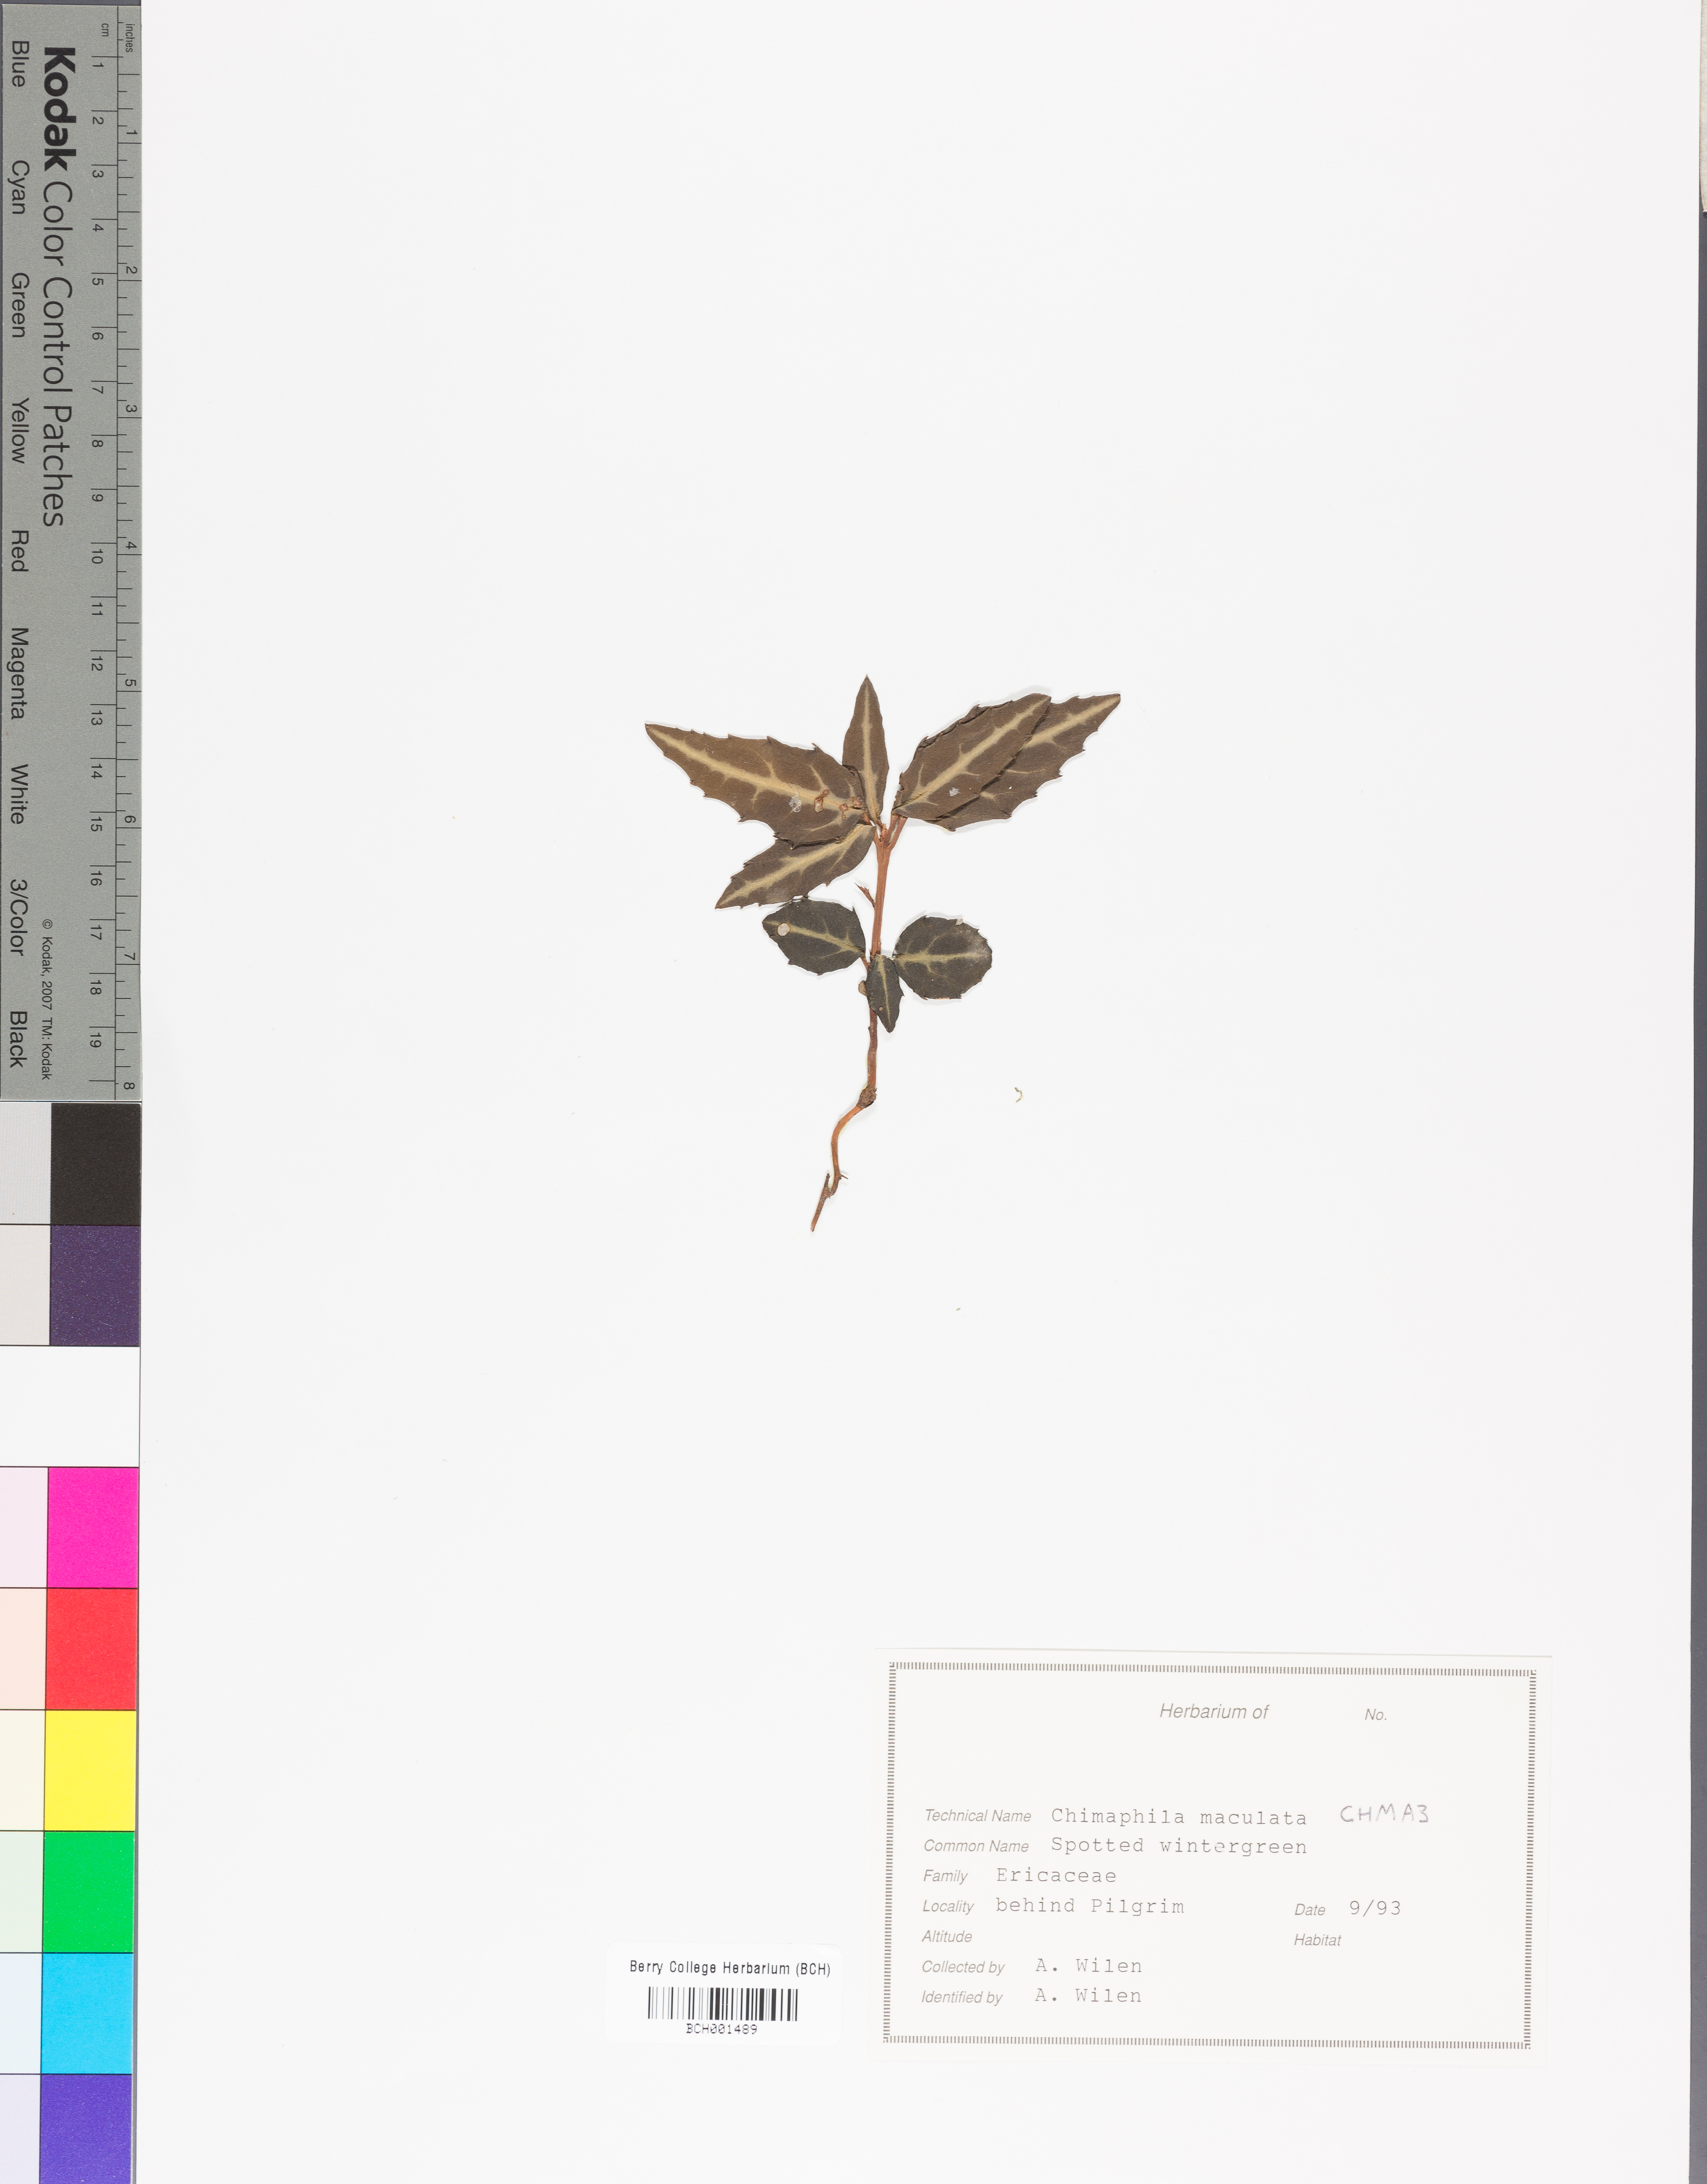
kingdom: Plantae
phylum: Tracheophyta
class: Magnoliopsida
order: Ericales
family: Ericaceae
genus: Chimaphila
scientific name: Chimaphila maculata
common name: Spotted pipsissewa
